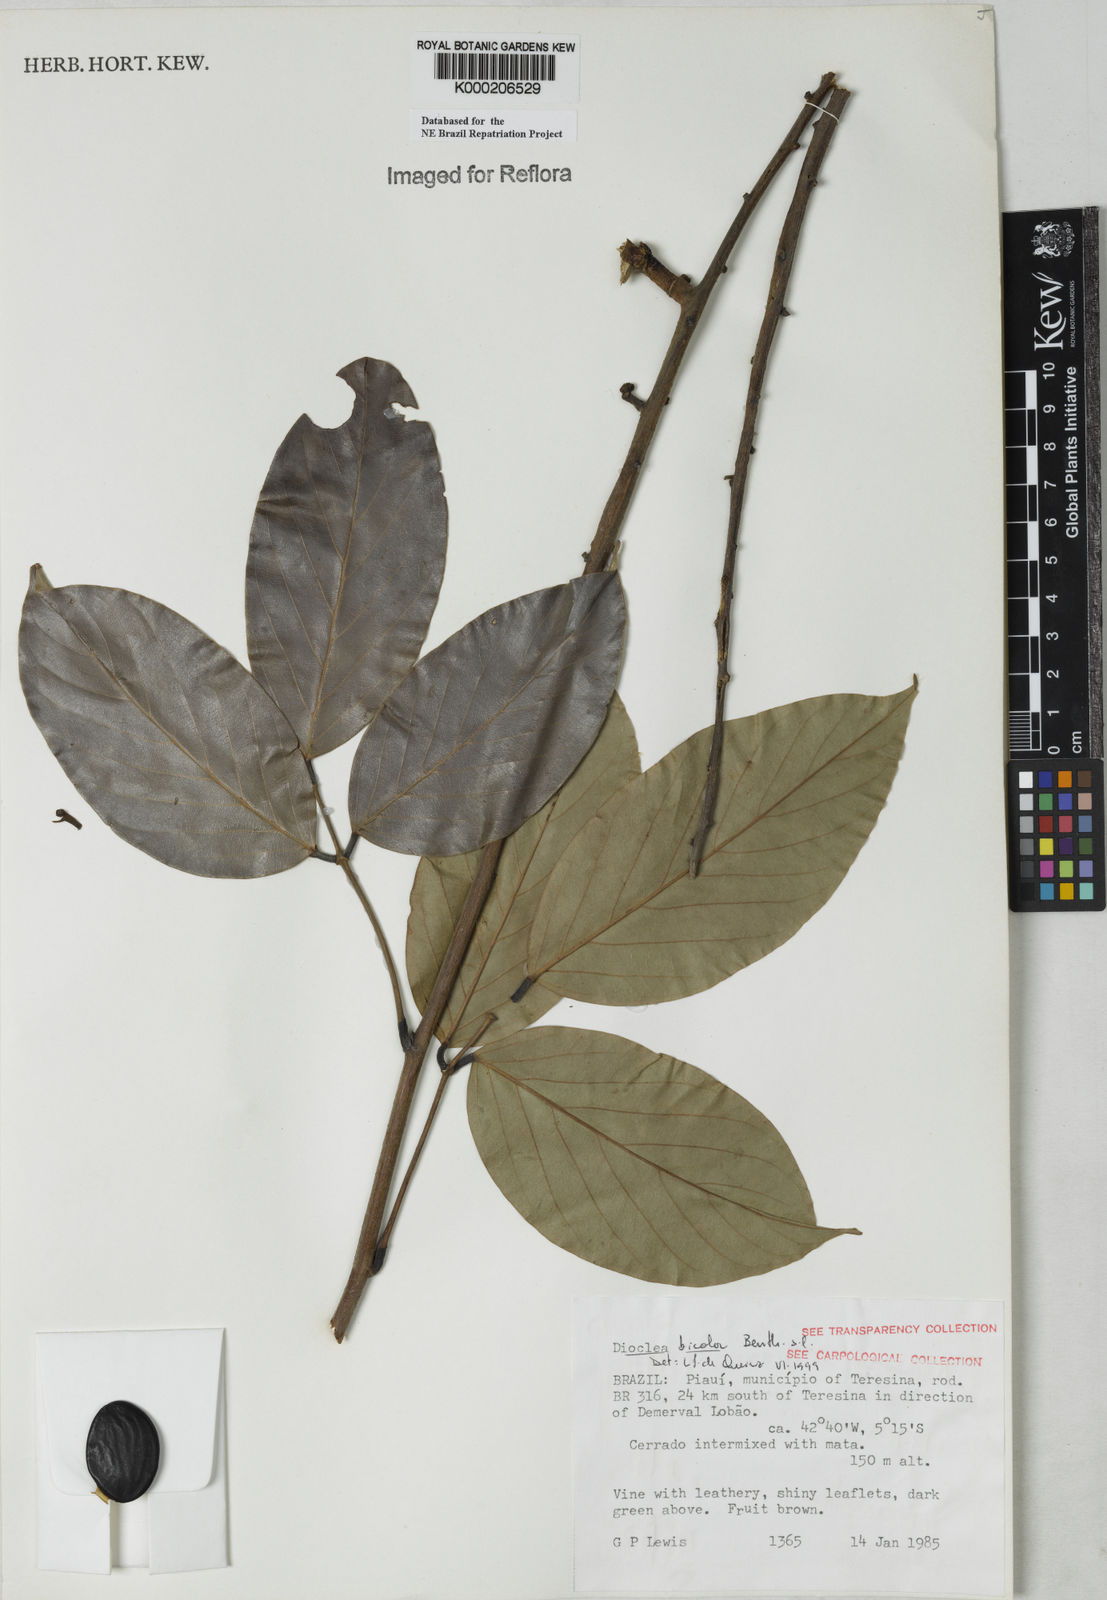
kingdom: Plantae
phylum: Tracheophyta
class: Magnoliopsida
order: Fabales
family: Fabaceae
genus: Macropsychanthus
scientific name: Macropsychanthus bicolor
